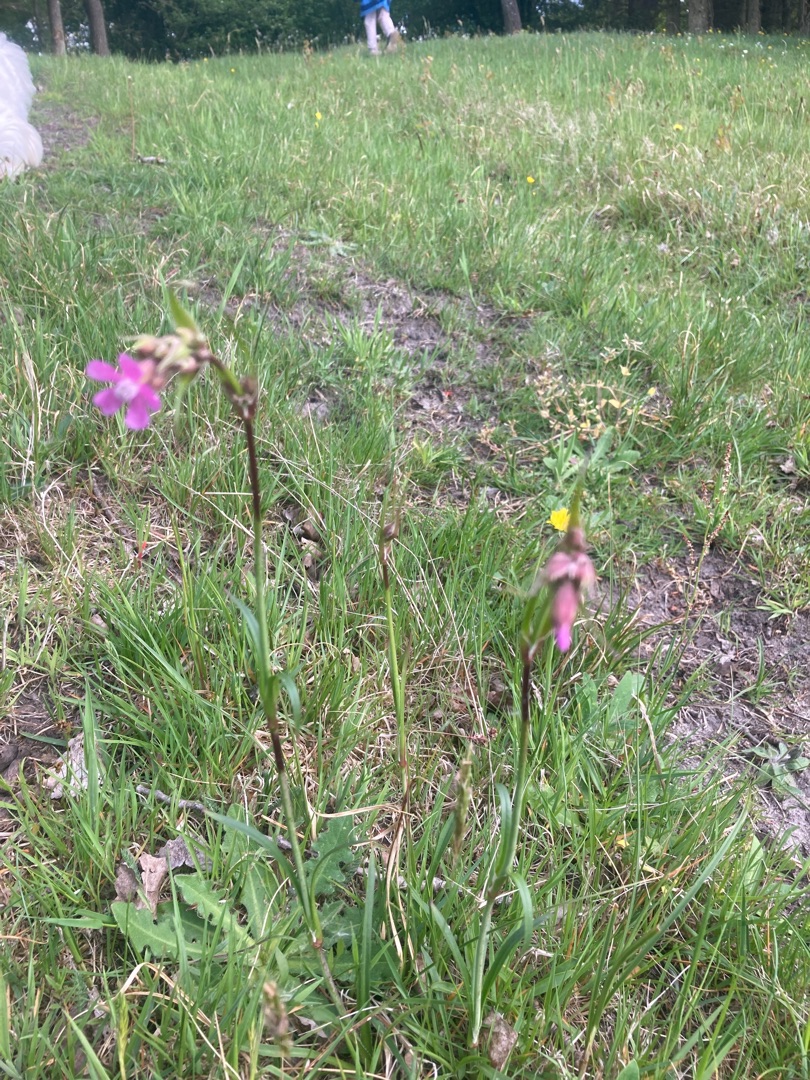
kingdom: Plantae
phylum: Tracheophyta
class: Magnoliopsida
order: Caryophyllales
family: Caryophyllaceae
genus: Viscaria
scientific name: Viscaria vulgaris
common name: Tjærenellike
